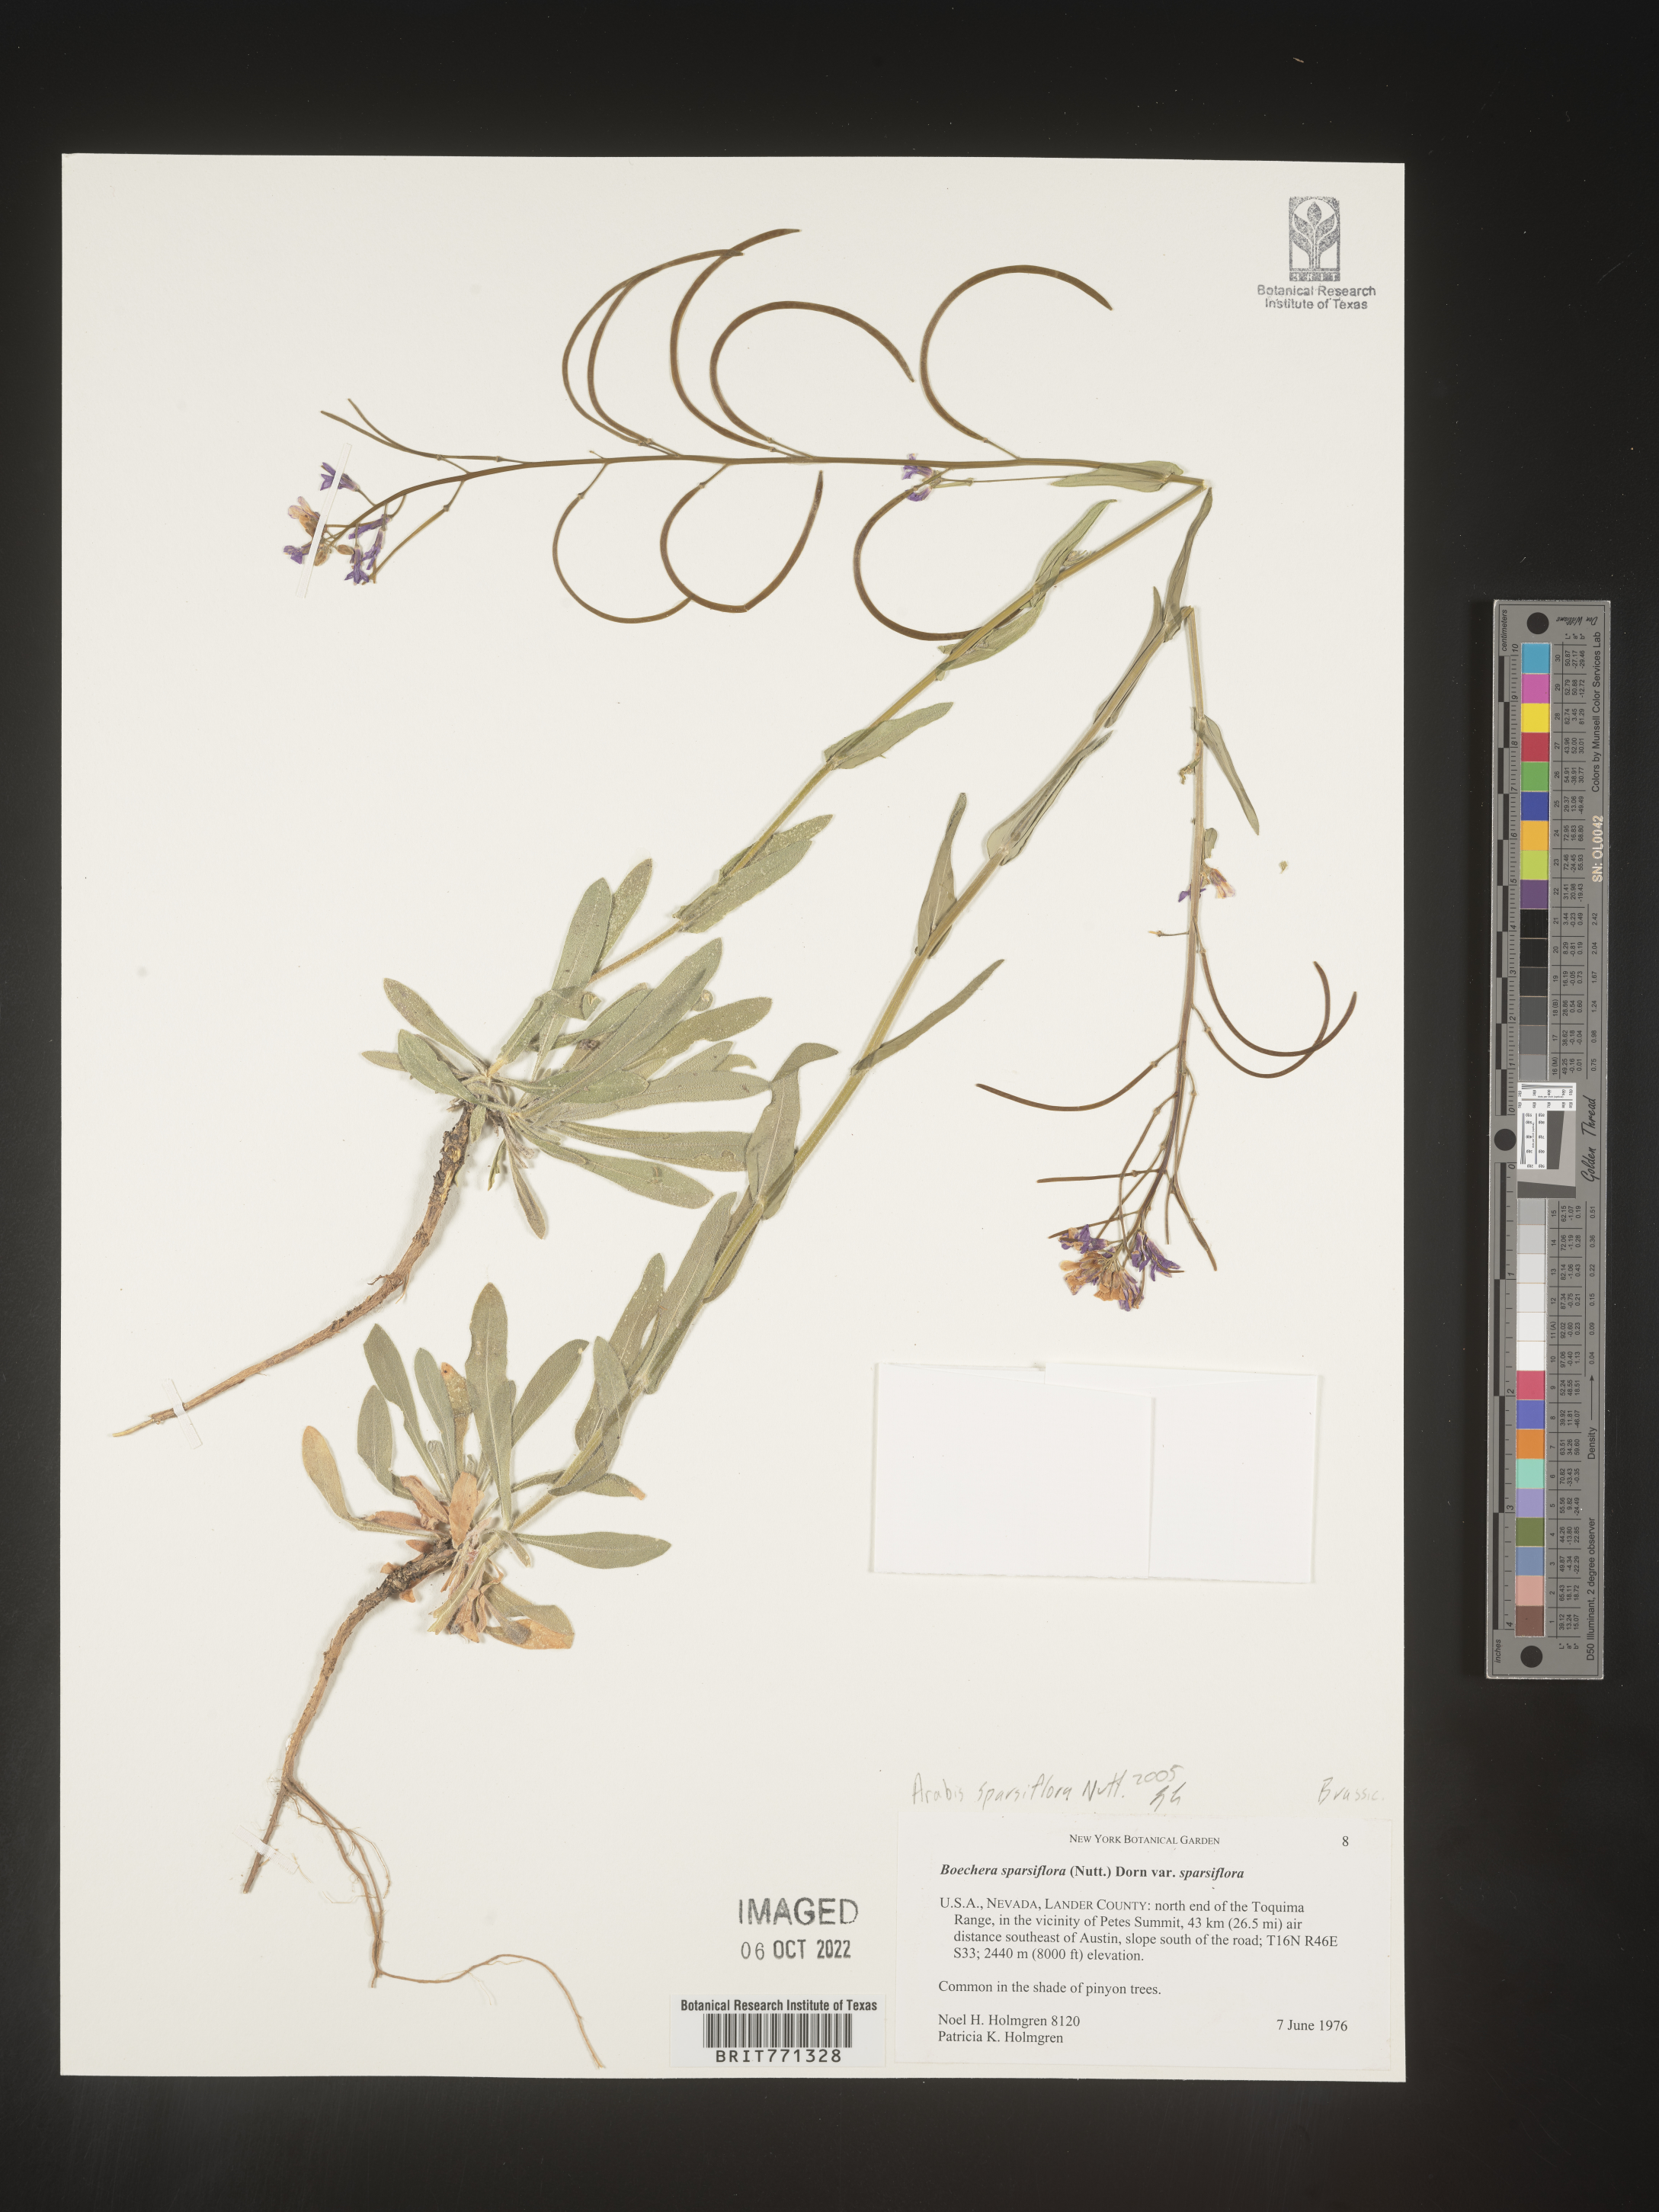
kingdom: Plantae
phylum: Tracheophyta
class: Magnoliopsida
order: Brassicales
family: Brassicaceae
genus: Arabis
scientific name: Arabis
